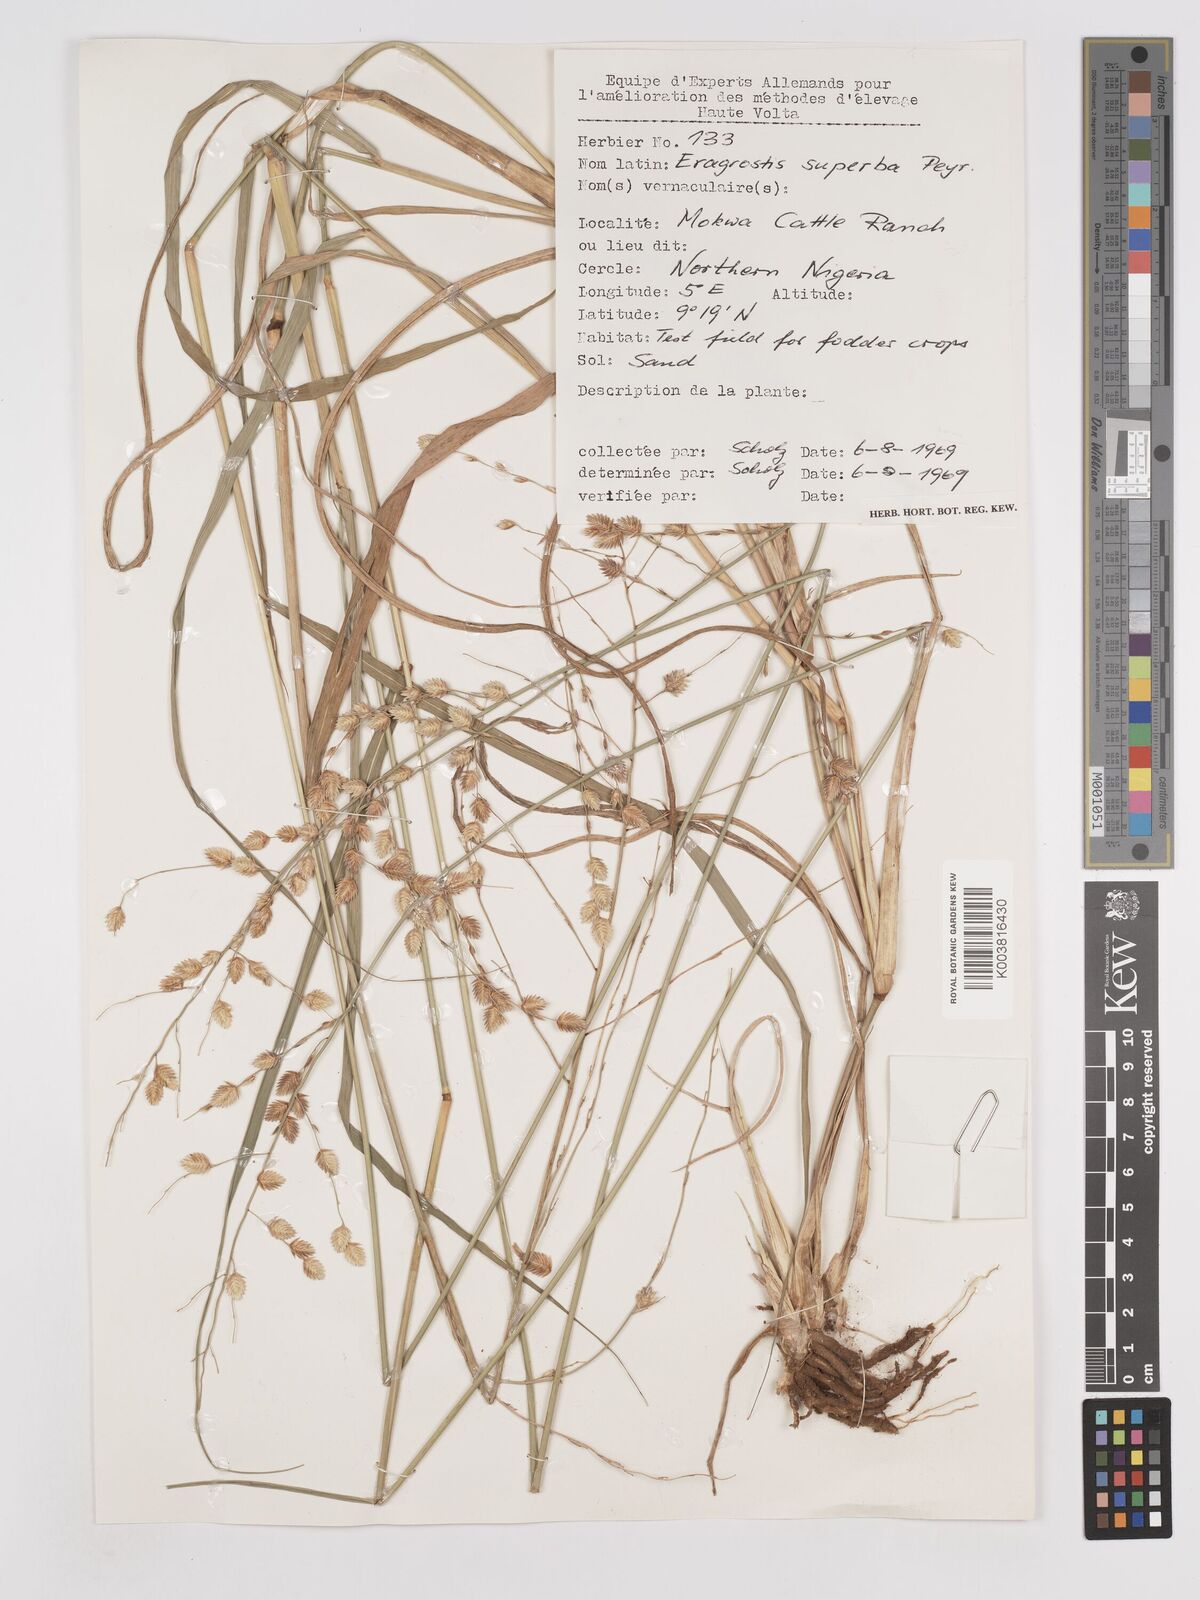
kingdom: Plantae
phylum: Tracheophyta
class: Liliopsida
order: Poales
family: Poaceae
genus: Eragrostis
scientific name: Eragrostis superba
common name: Wilman lovegrass
